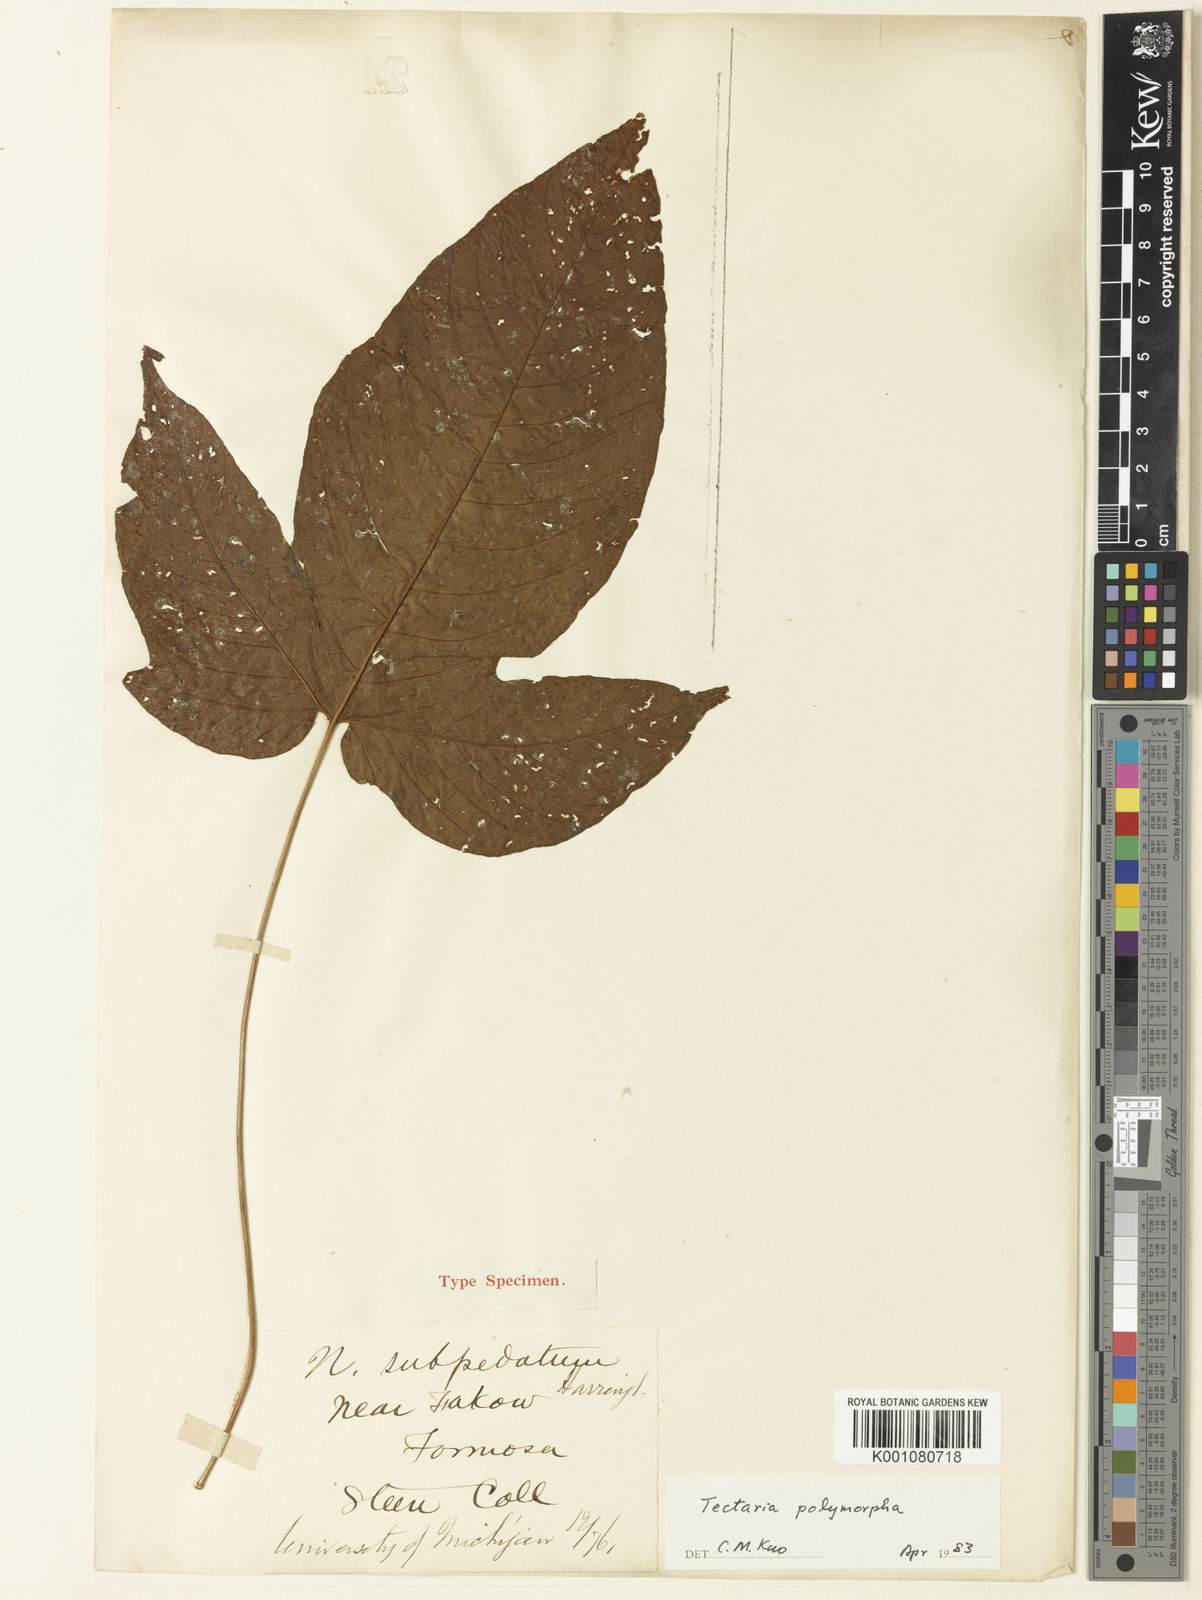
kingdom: Plantae
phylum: Tracheophyta
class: Polypodiopsida
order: Polypodiales
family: Tectariaceae
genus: Tectaria
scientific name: Tectaria polymorpha
